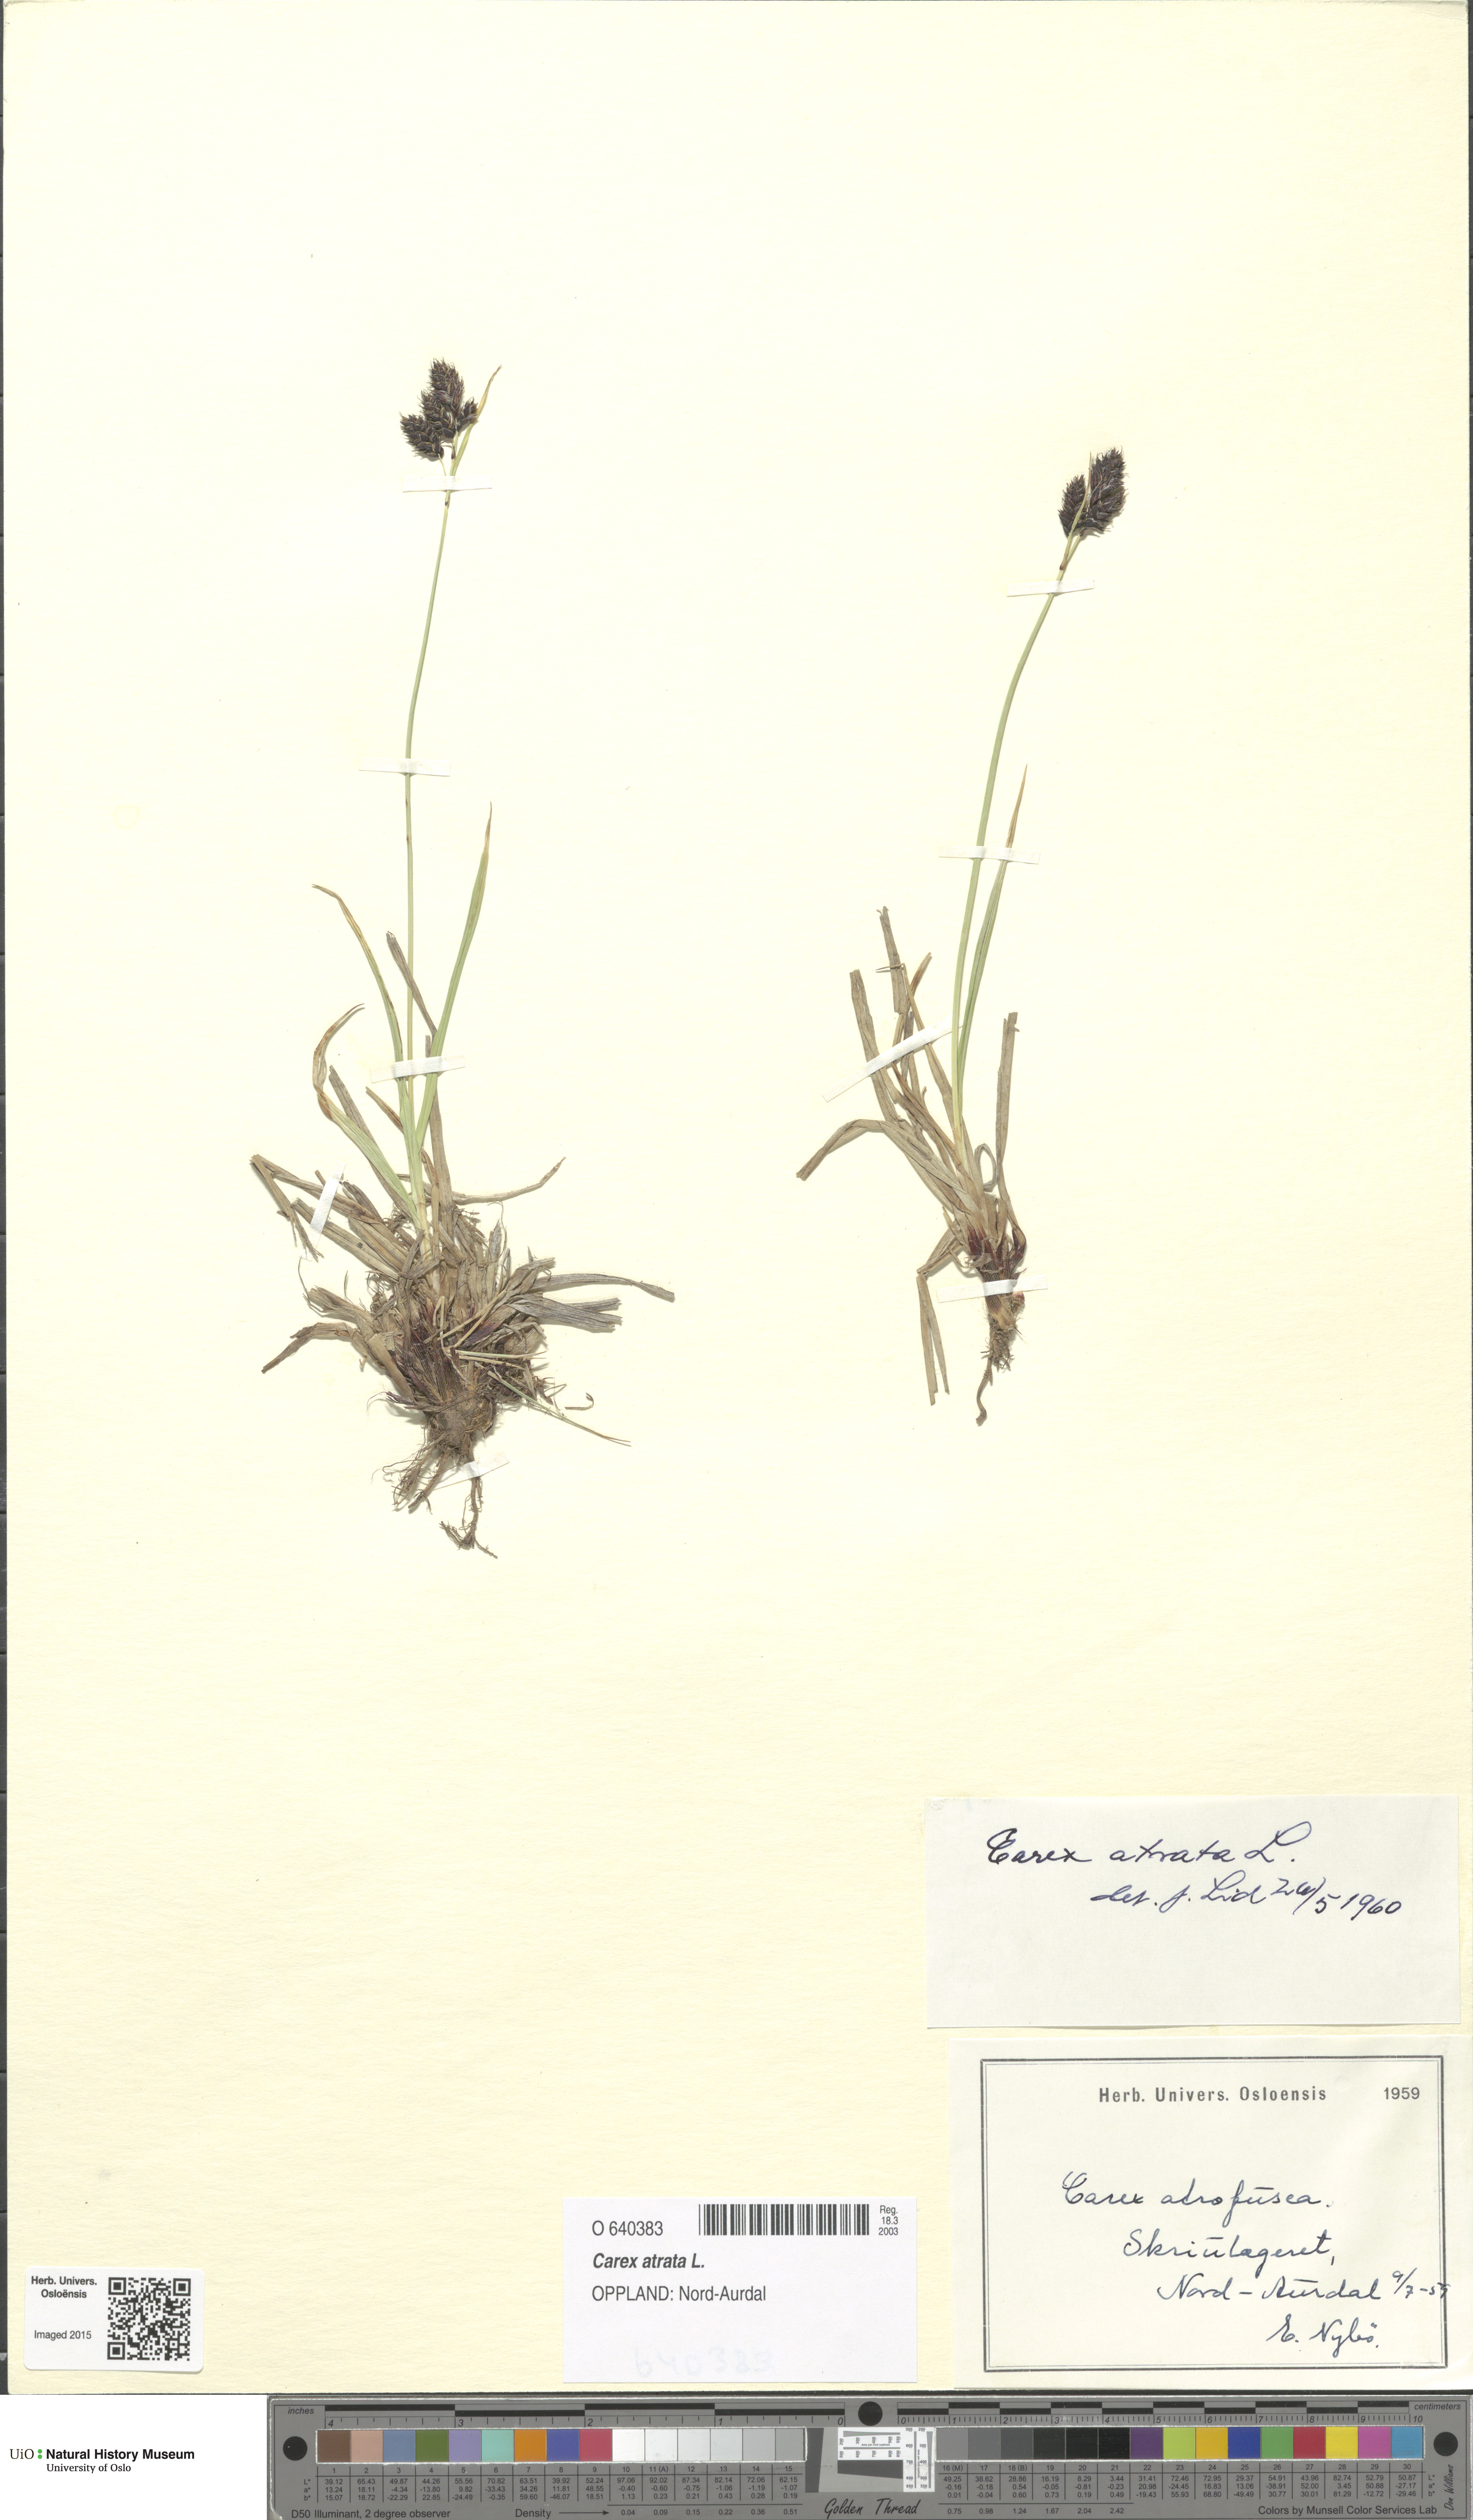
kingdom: Plantae
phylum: Tracheophyta
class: Liliopsida
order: Poales
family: Cyperaceae
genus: Carex
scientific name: Carex atrata
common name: Black alpine sedge
